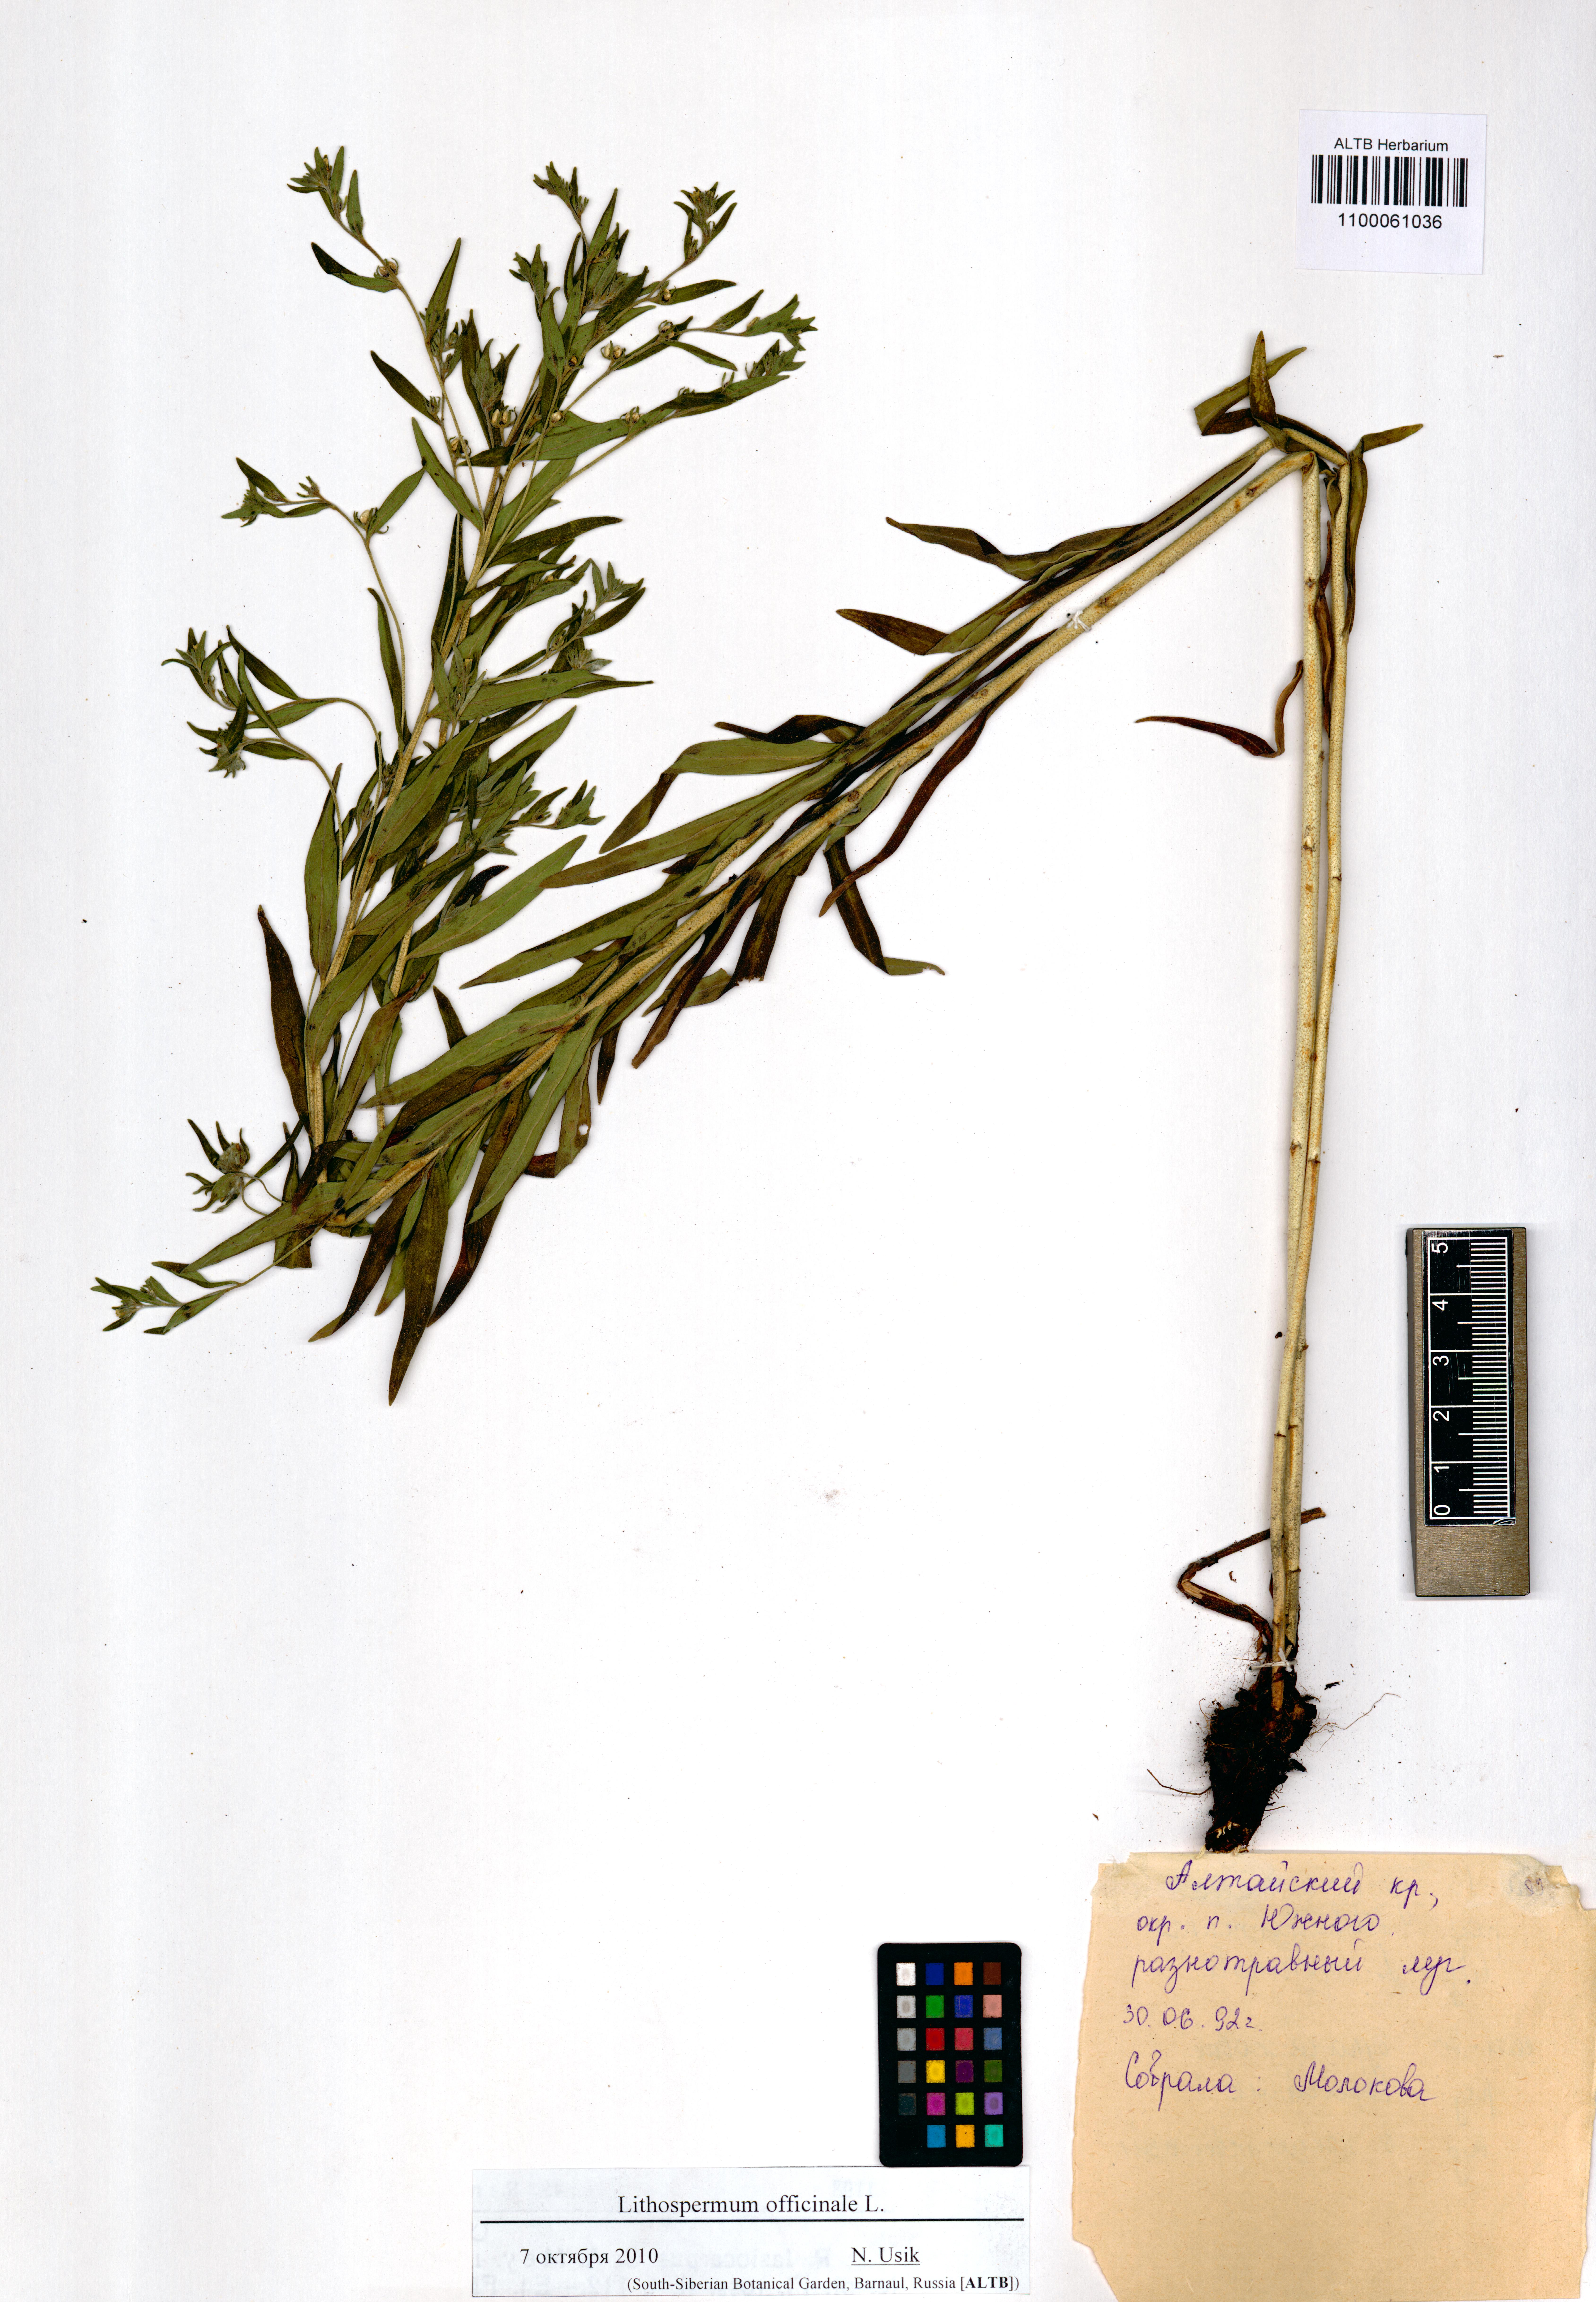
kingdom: Plantae
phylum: Tracheophyta
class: Magnoliopsida
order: Boraginales
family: Boraginaceae
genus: Lithospermum
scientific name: Lithospermum officinale
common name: Common gromwell
